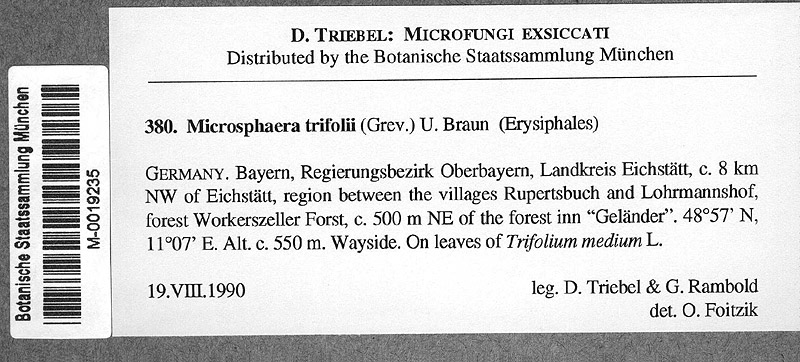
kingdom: Plantae
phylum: Tracheophyta
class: Magnoliopsida
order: Fabales
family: Fabaceae
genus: Trifolium
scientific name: Trifolium medium
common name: Zigzag clover
